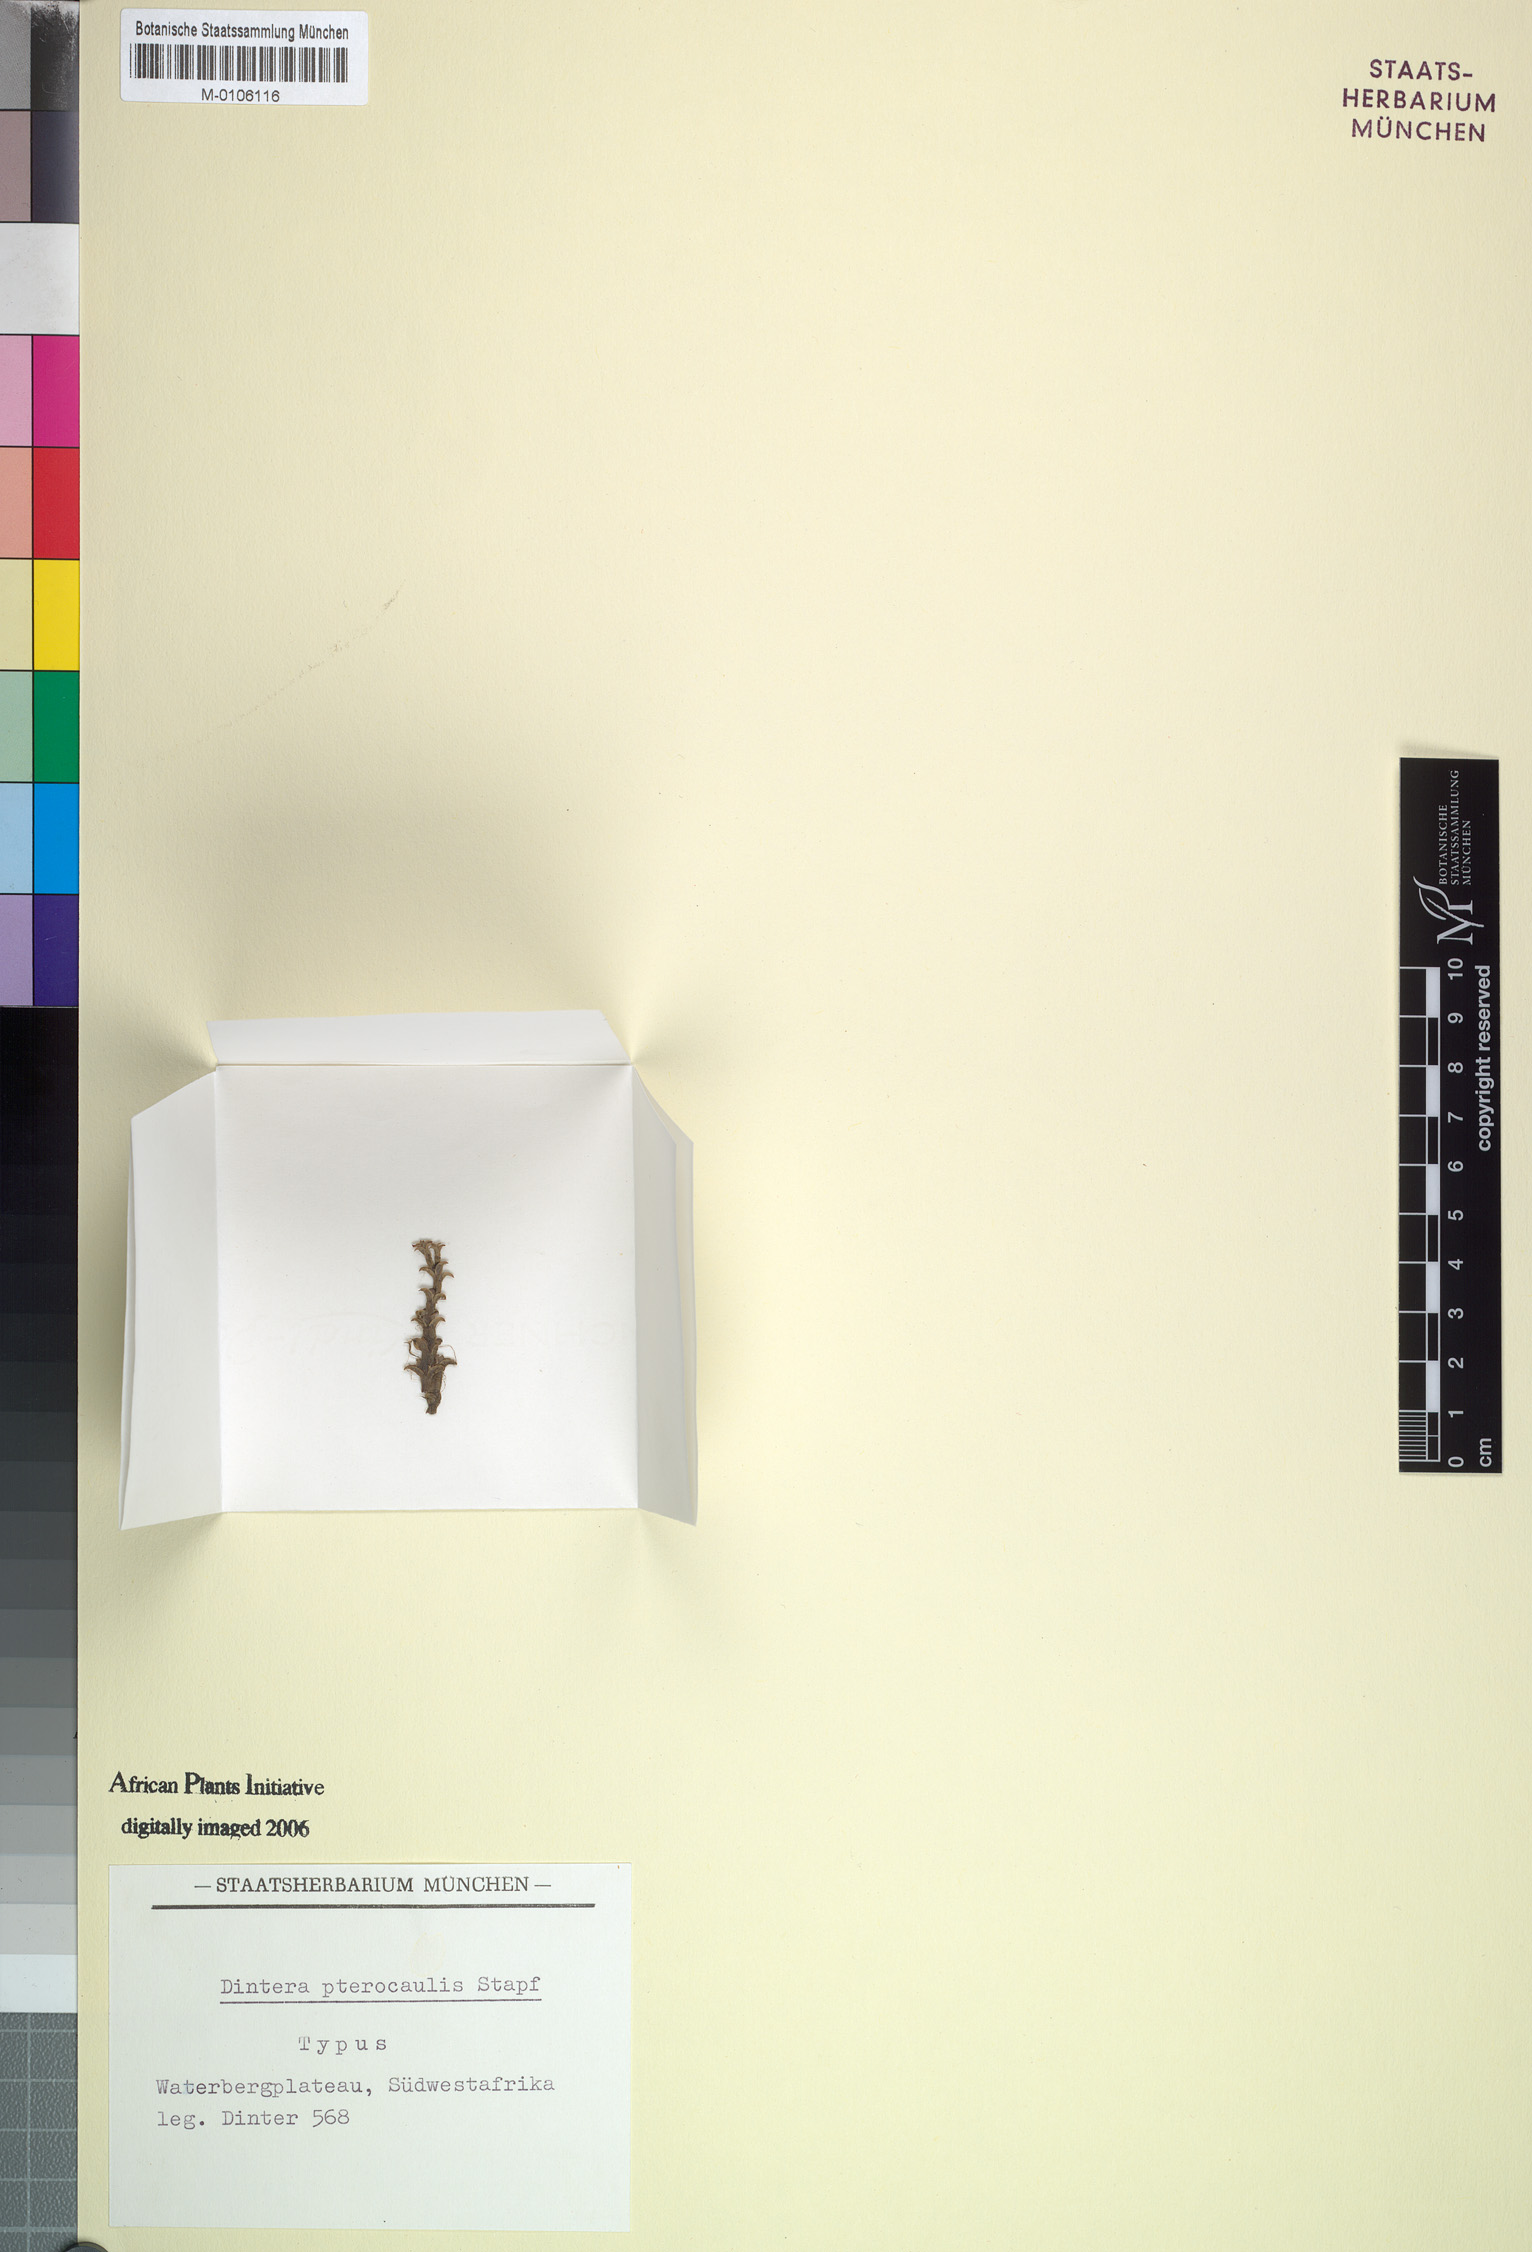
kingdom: Plantae
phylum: Tracheophyta
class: Magnoliopsida
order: Lamiales
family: Plantaginaceae
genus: Dintera
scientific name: Dintera pterocaulis
